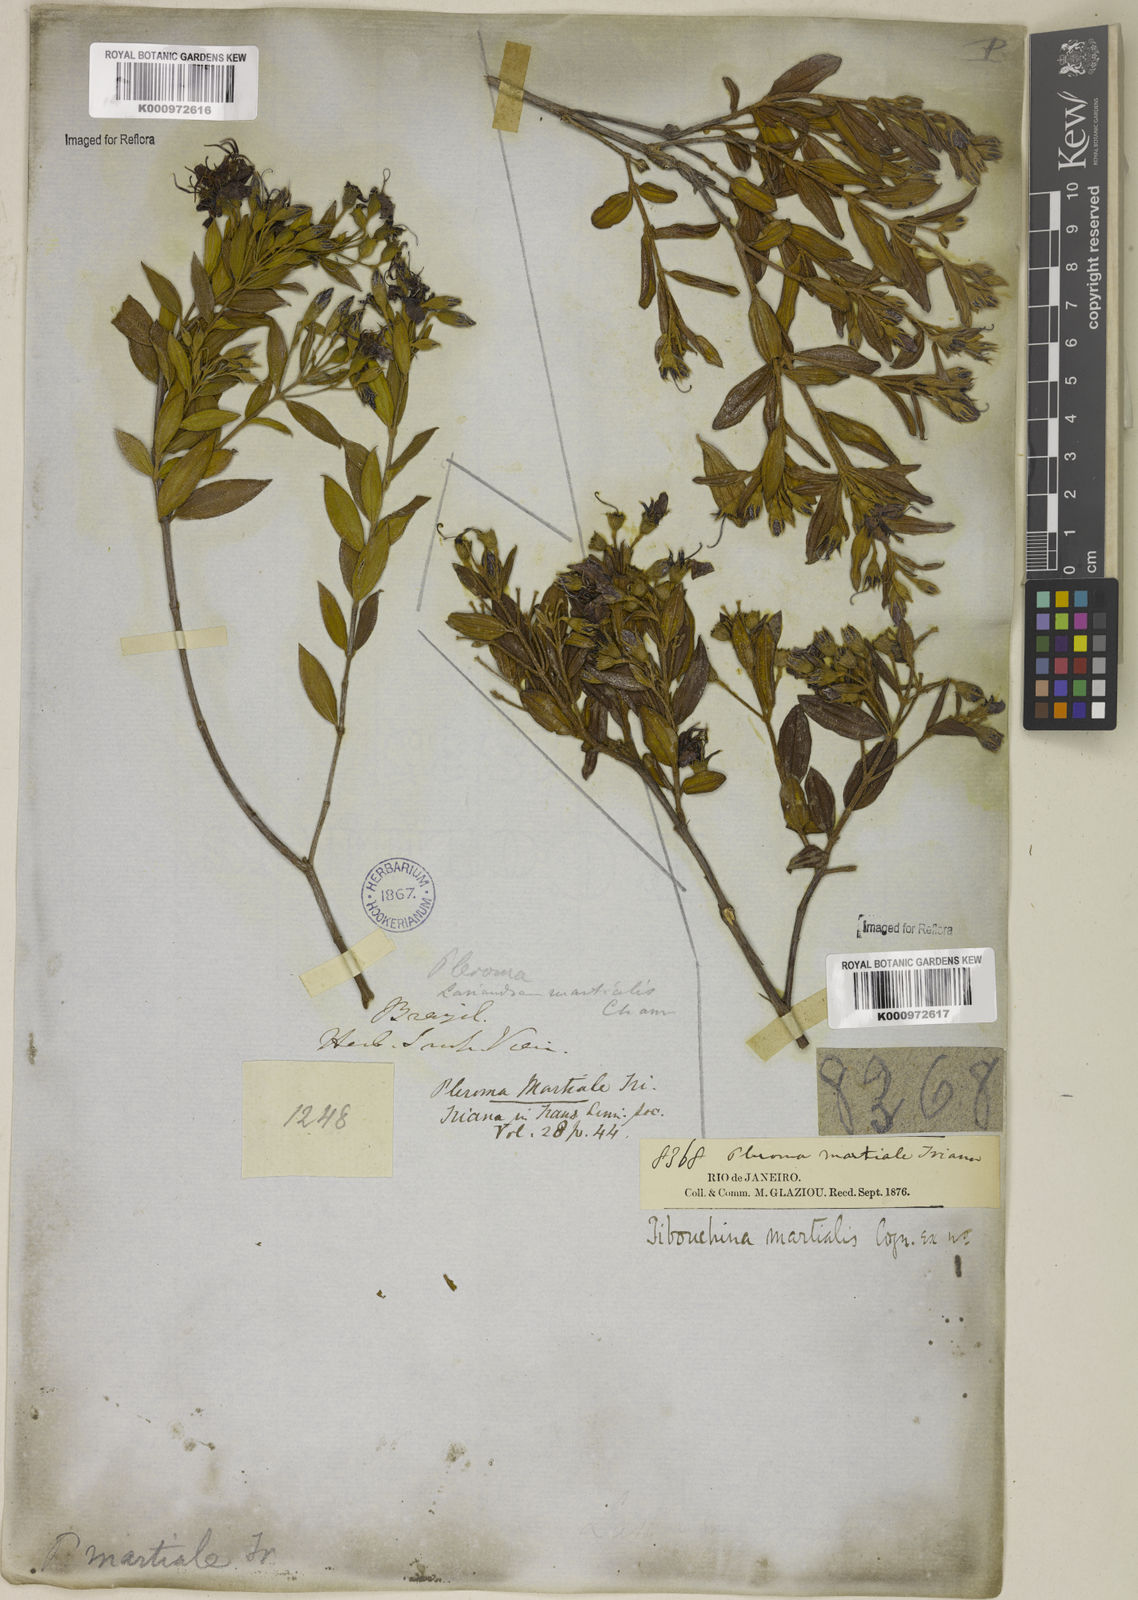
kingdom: Plantae
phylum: Tracheophyta
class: Magnoliopsida
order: Myrtales
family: Melastomataceae
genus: Pleroma
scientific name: Pleroma martiale
